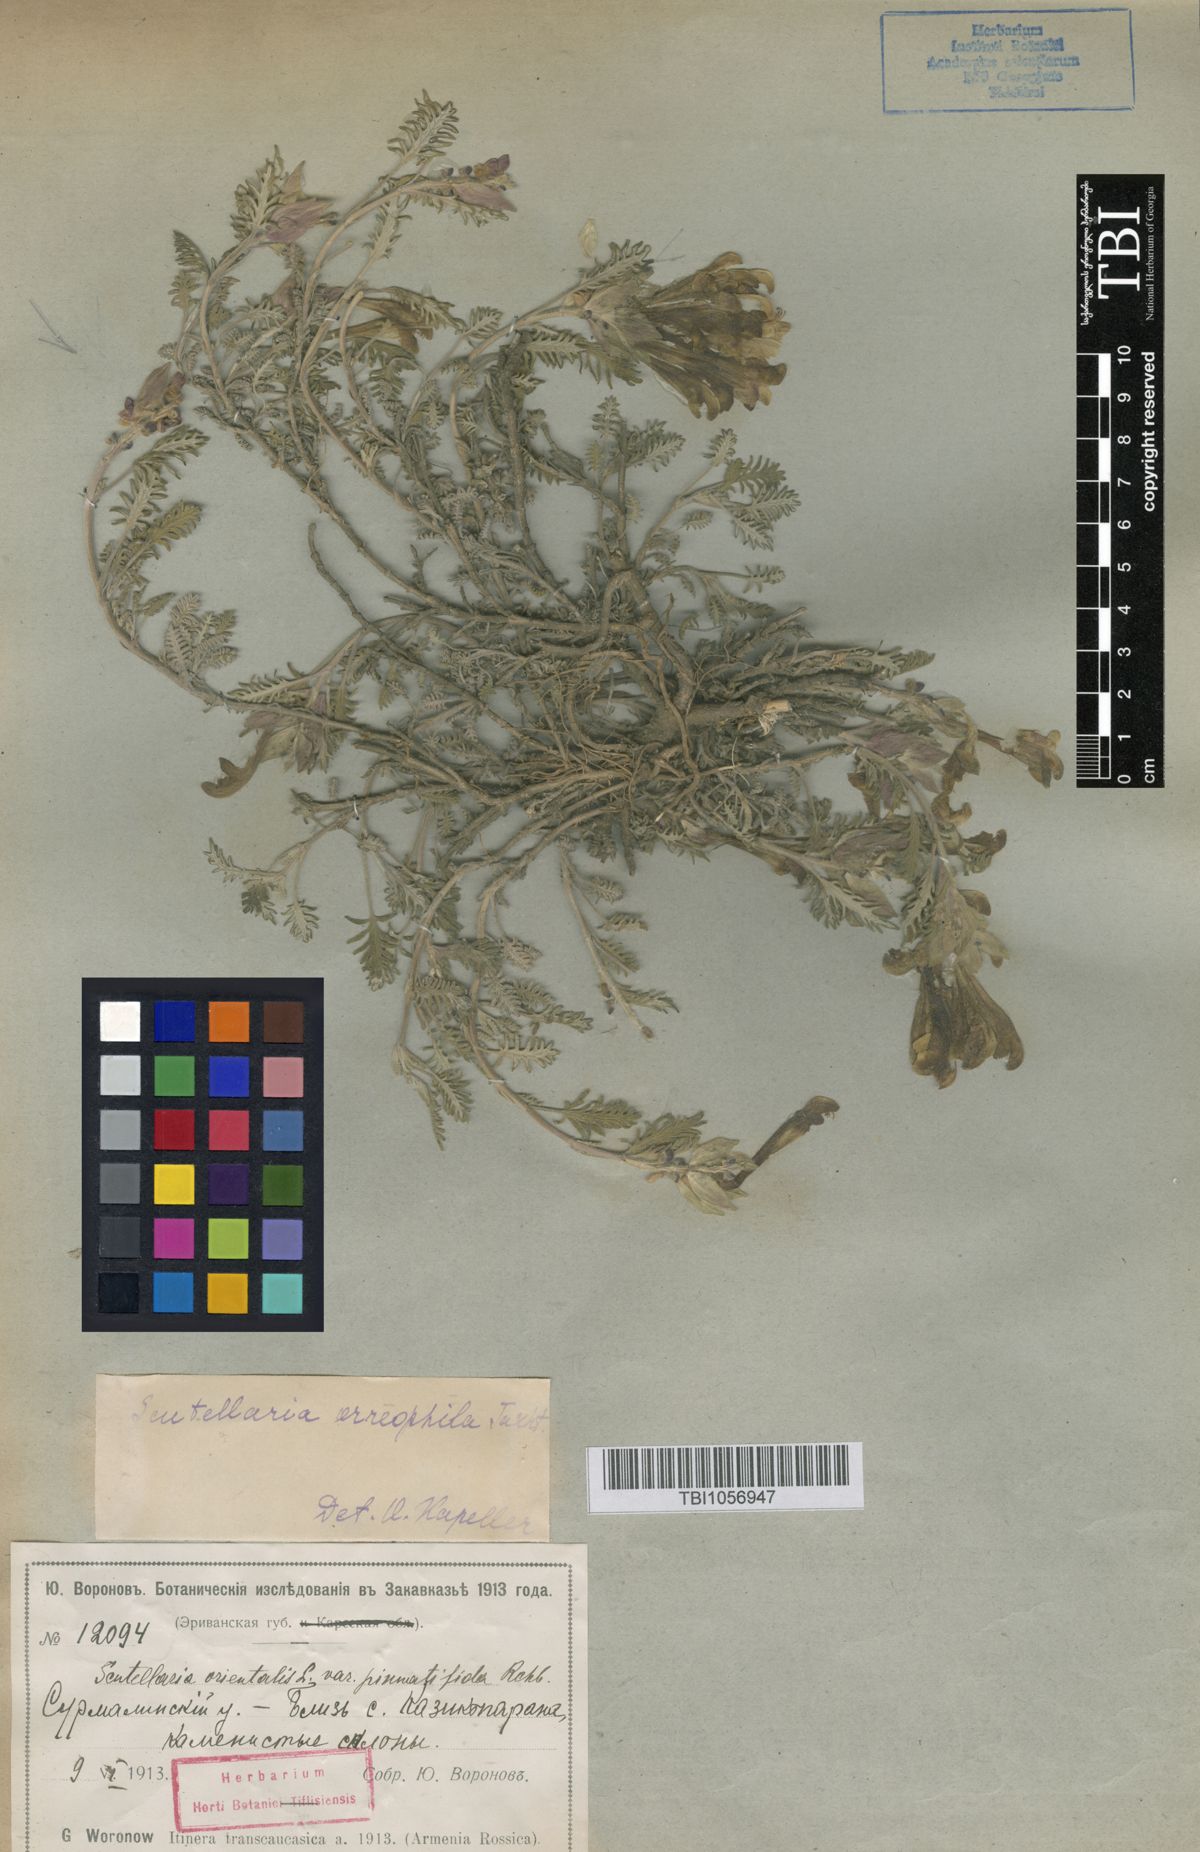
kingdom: Plantae
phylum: Tracheophyta
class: Magnoliopsida
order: Lamiales
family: Lamiaceae
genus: Scutellaria
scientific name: Scutellaria sosnowskyi
